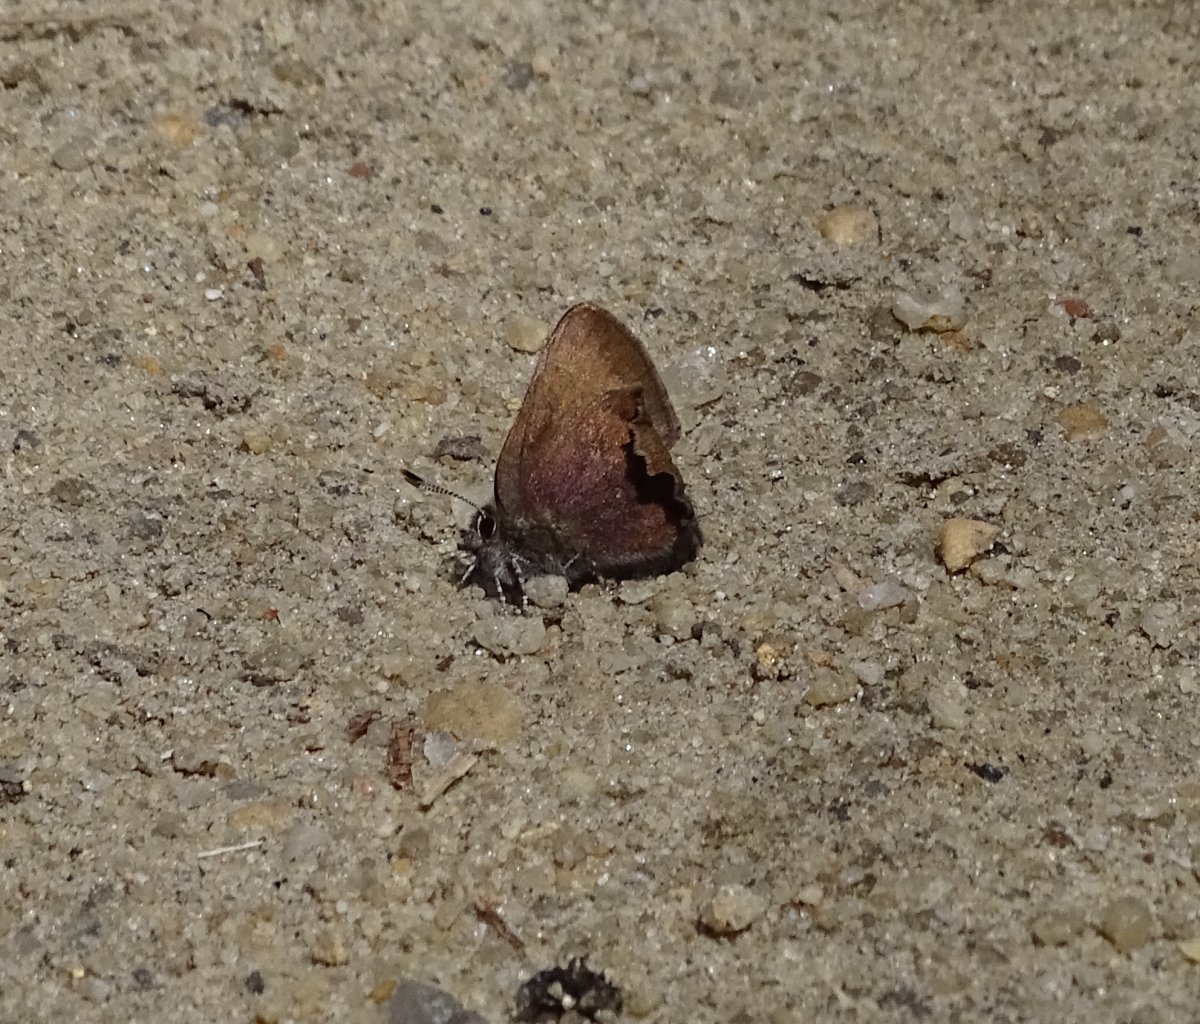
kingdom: Animalia
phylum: Arthropoda
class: Insecta
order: Lepidoptera
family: Lycaenidae
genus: Incisalia
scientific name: Incisalia irioides
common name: Brown Elfin
